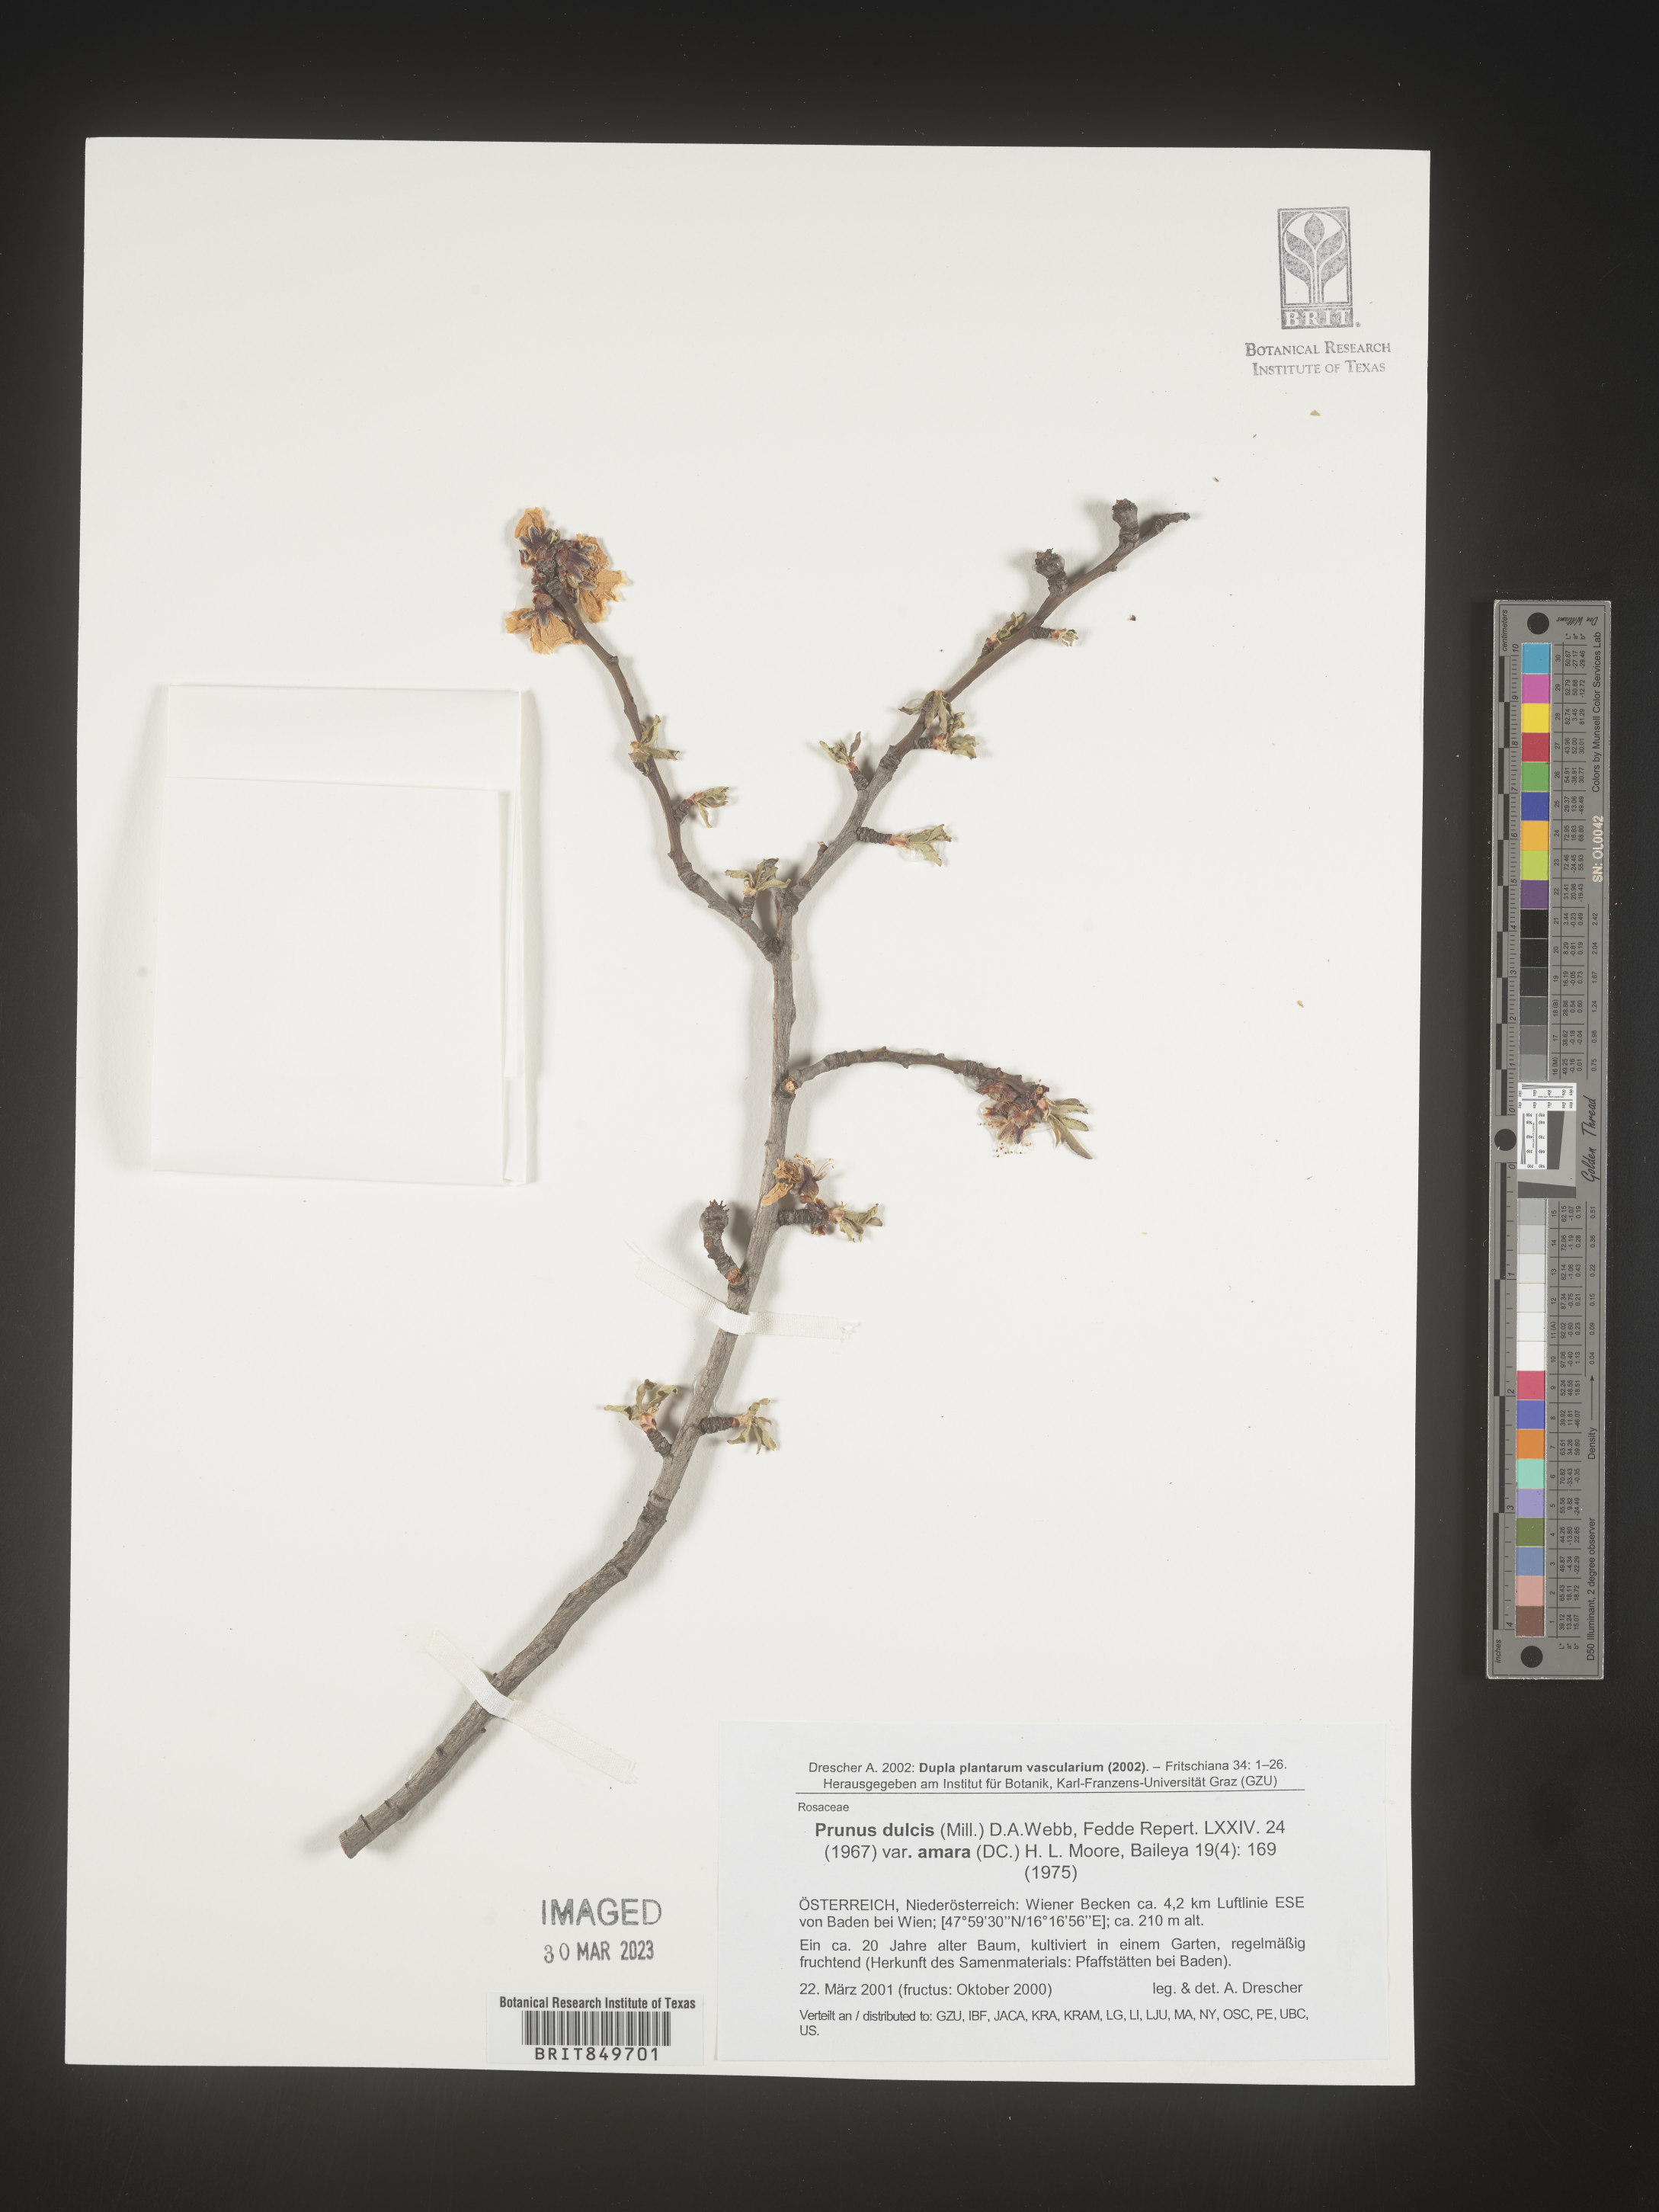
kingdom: Plantae
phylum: Tracheophyta
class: Magnoliopsida
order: Rosales
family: Rosaceae
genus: Prunus
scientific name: Prunus
